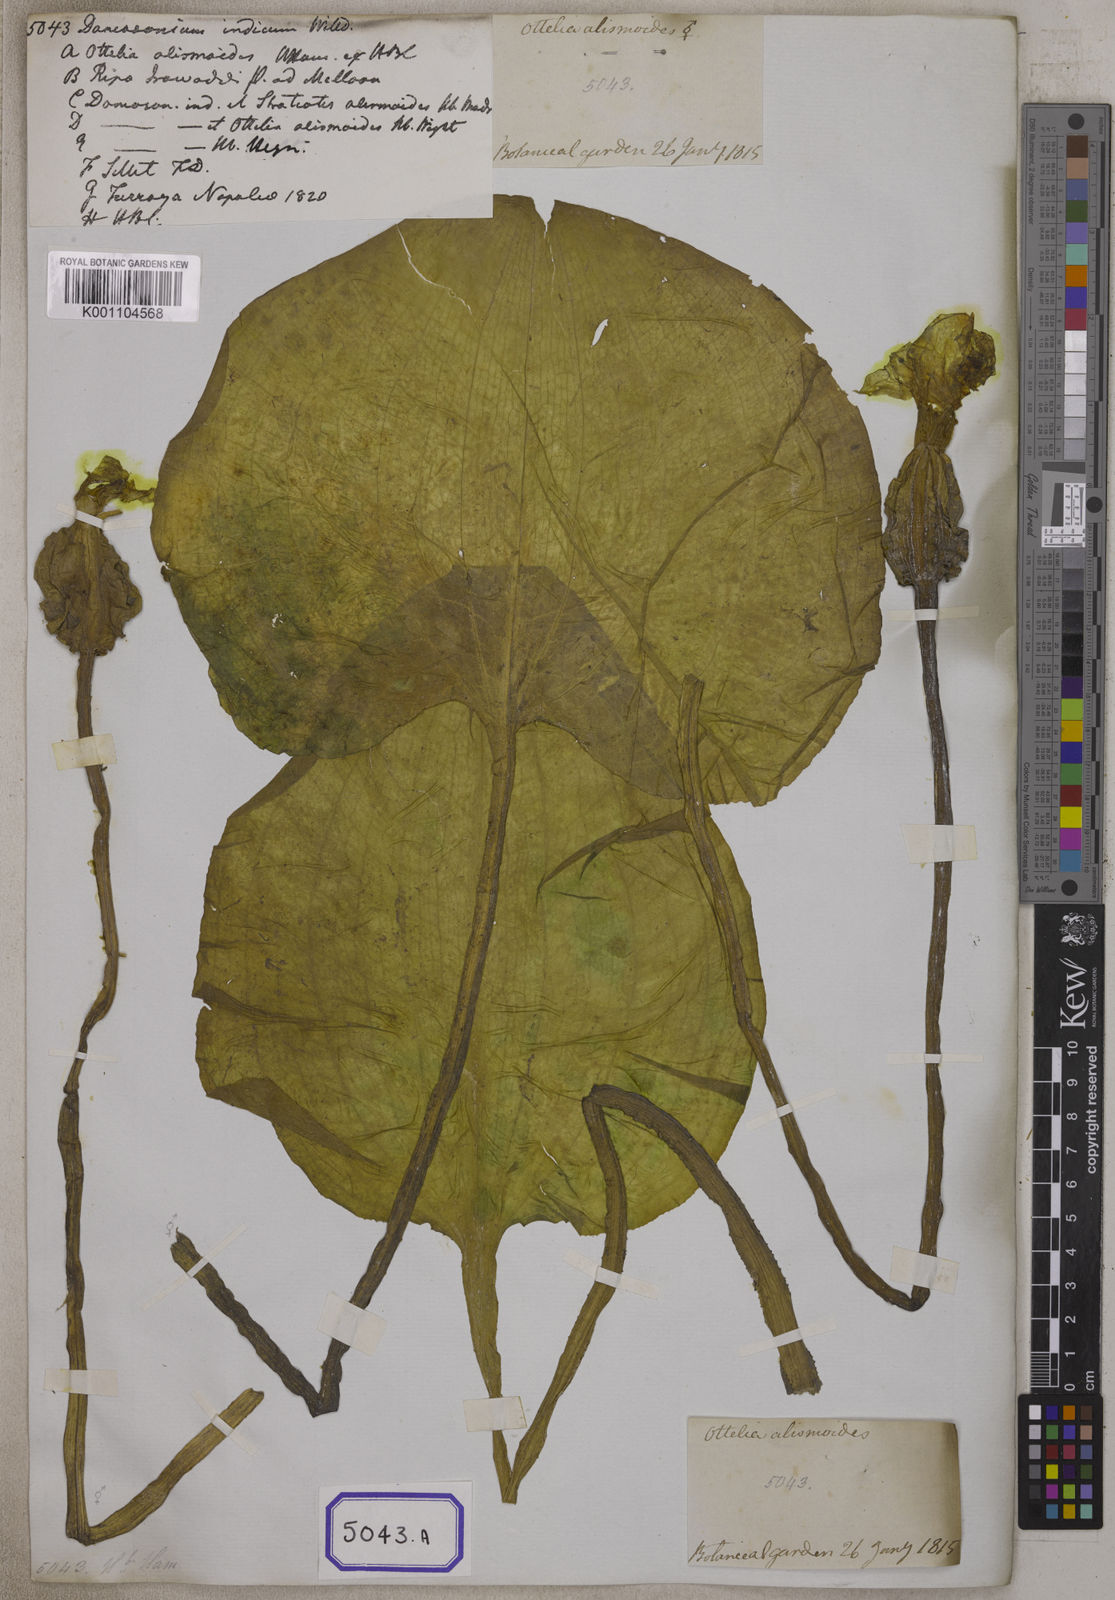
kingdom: Plantae
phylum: Tracheophyta
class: Liliopsida
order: Alismatales
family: Hydrocharitaceae
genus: Ottelia
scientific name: Ottelia alismoides
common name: Duck-lettuce
